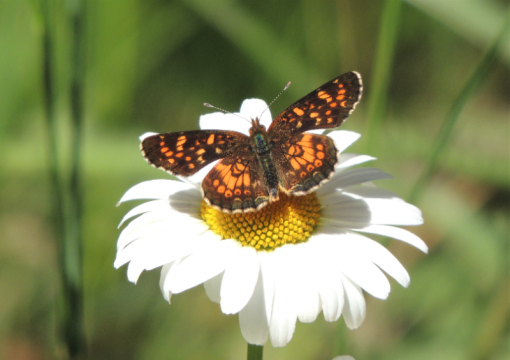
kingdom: Animalia
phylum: Arthropoda
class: Insecta
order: Lepidoptera
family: Nymphalidae
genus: Phyciodes
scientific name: Phyciodes tharos
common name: Field Crescent
